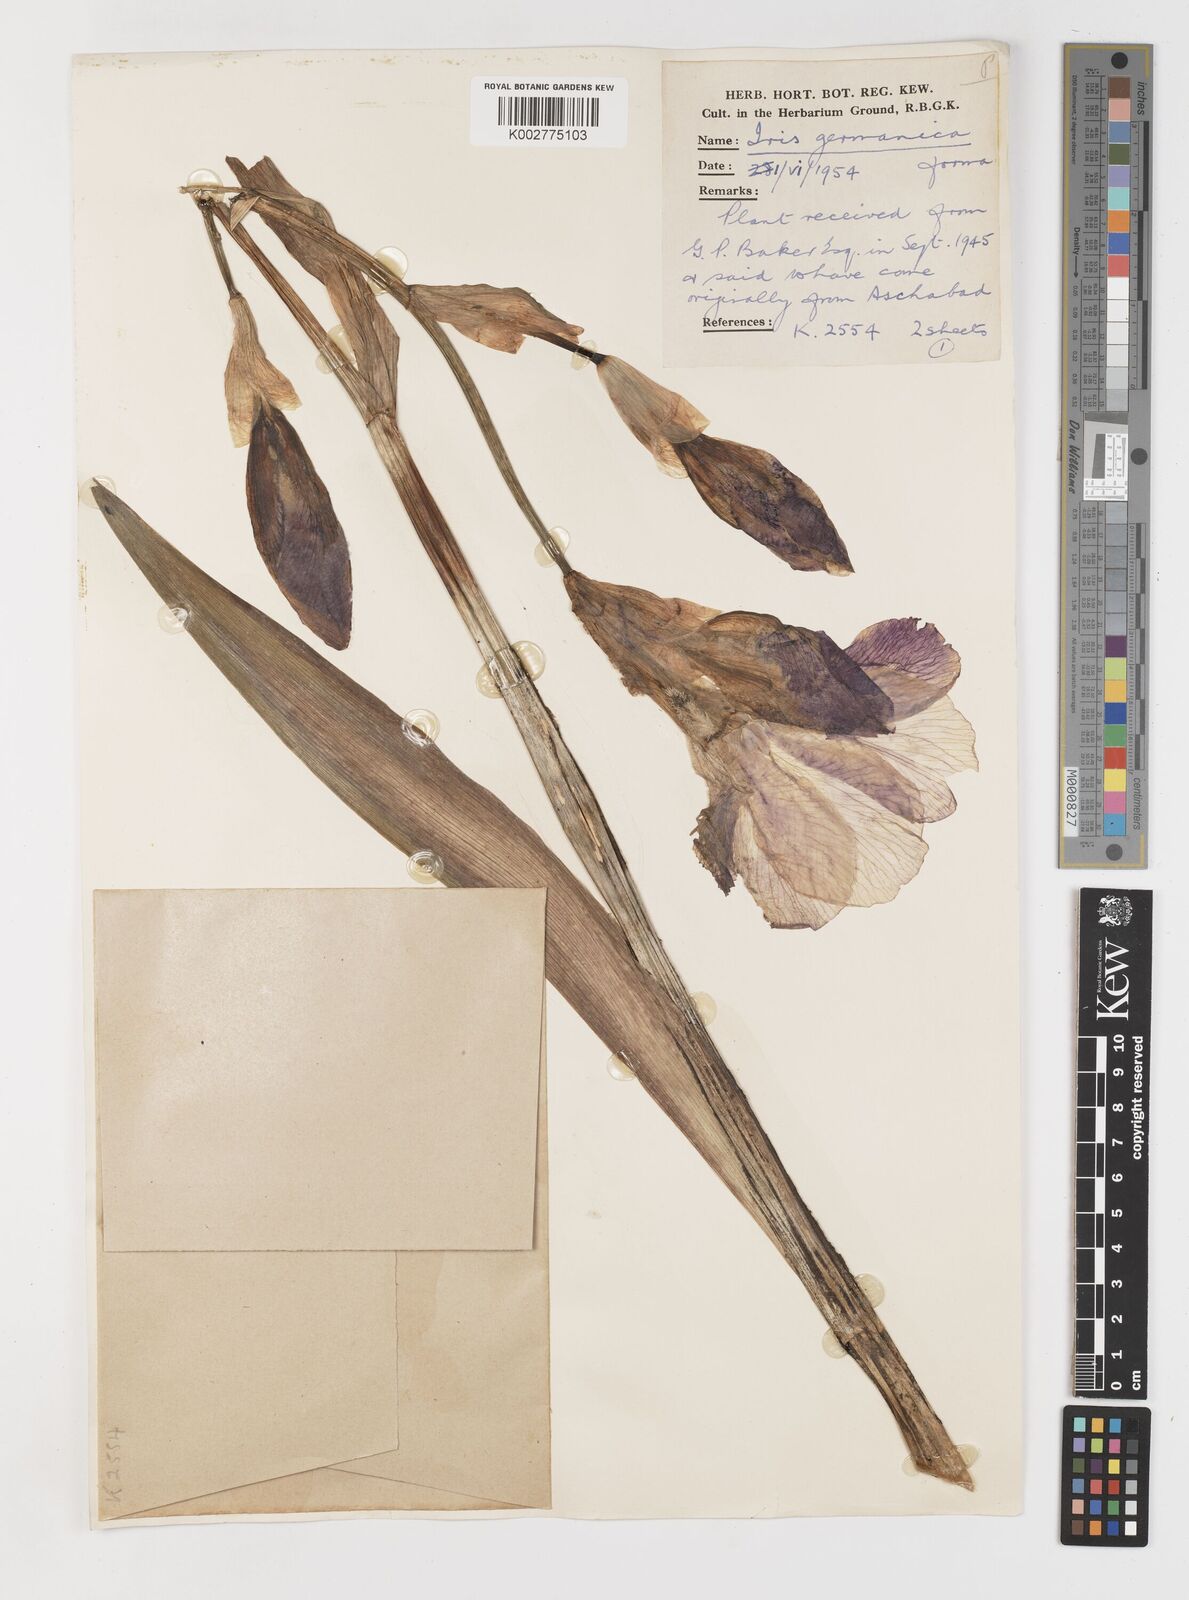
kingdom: Plantae
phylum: Tracheophyta
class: Liliopsida
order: Asparagales
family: Iridaceae
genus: Iris
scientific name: Iris germanica
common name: German iris
